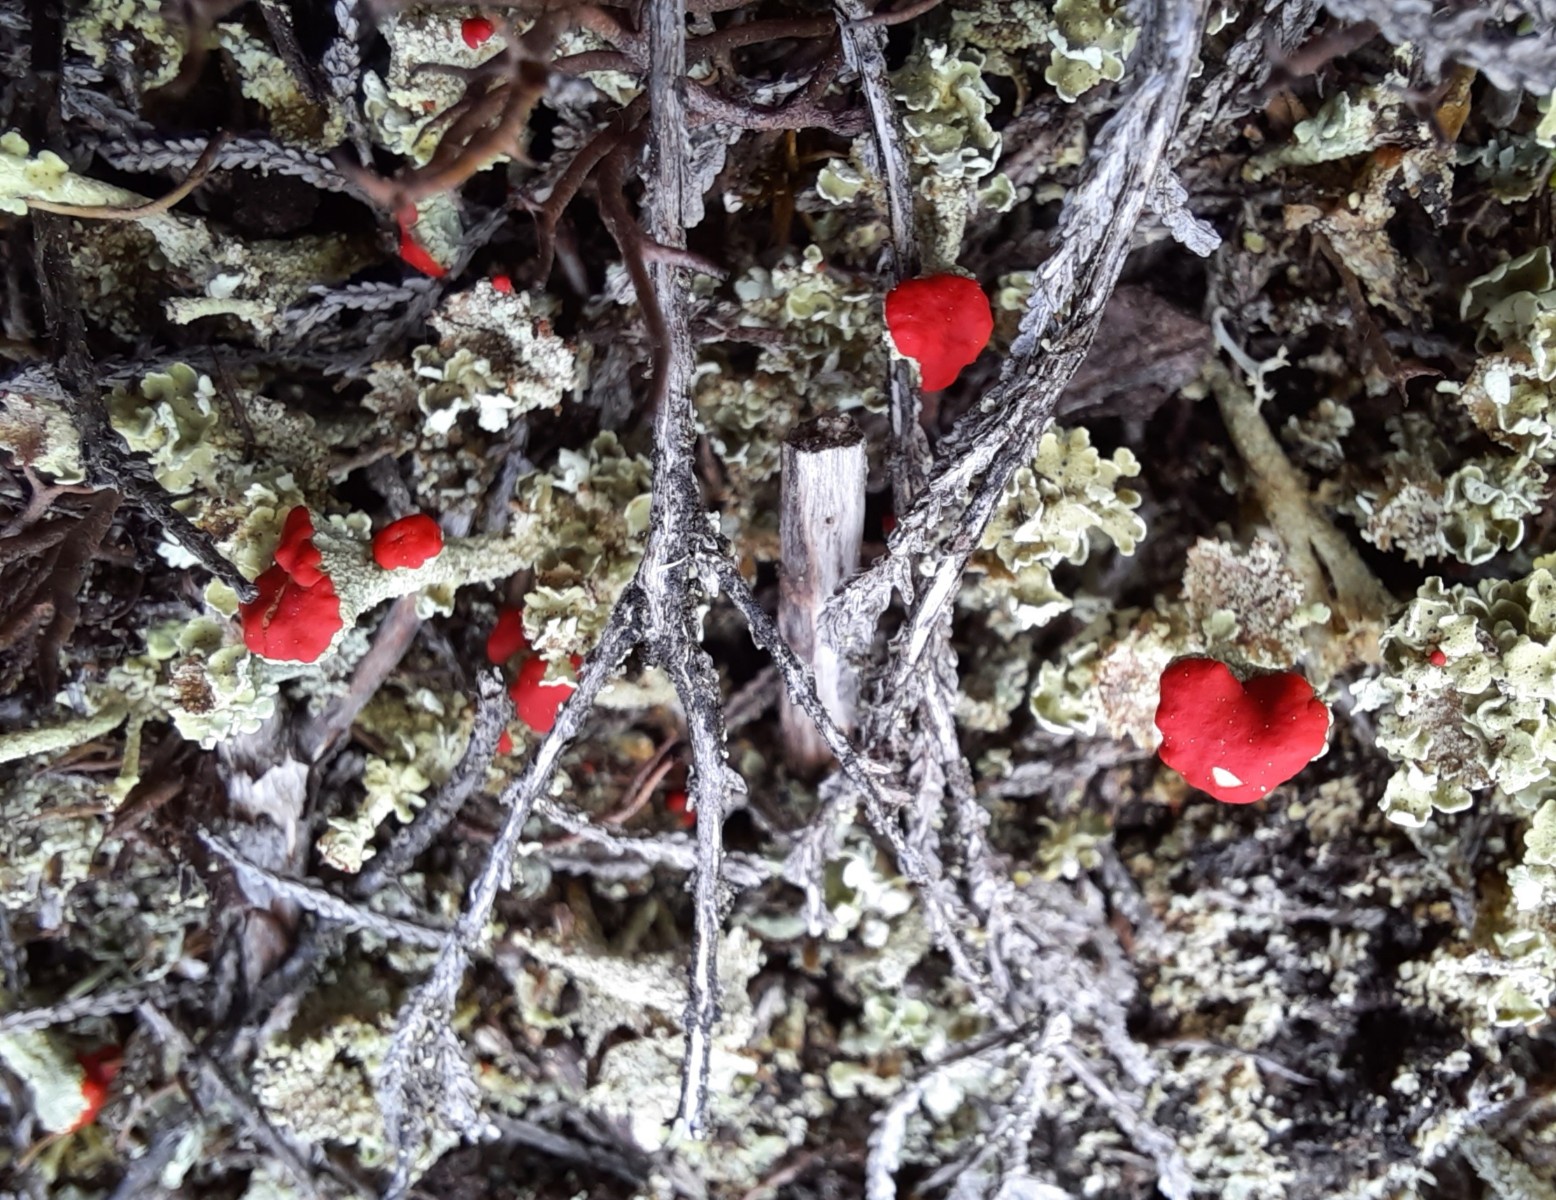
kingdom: Fungi
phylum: Ascomycota
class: Lecanoromycetes
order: Lecanorales
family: Cladoniaceae
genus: Cladonia
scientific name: Cladonia diversa
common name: rød bægerlav
